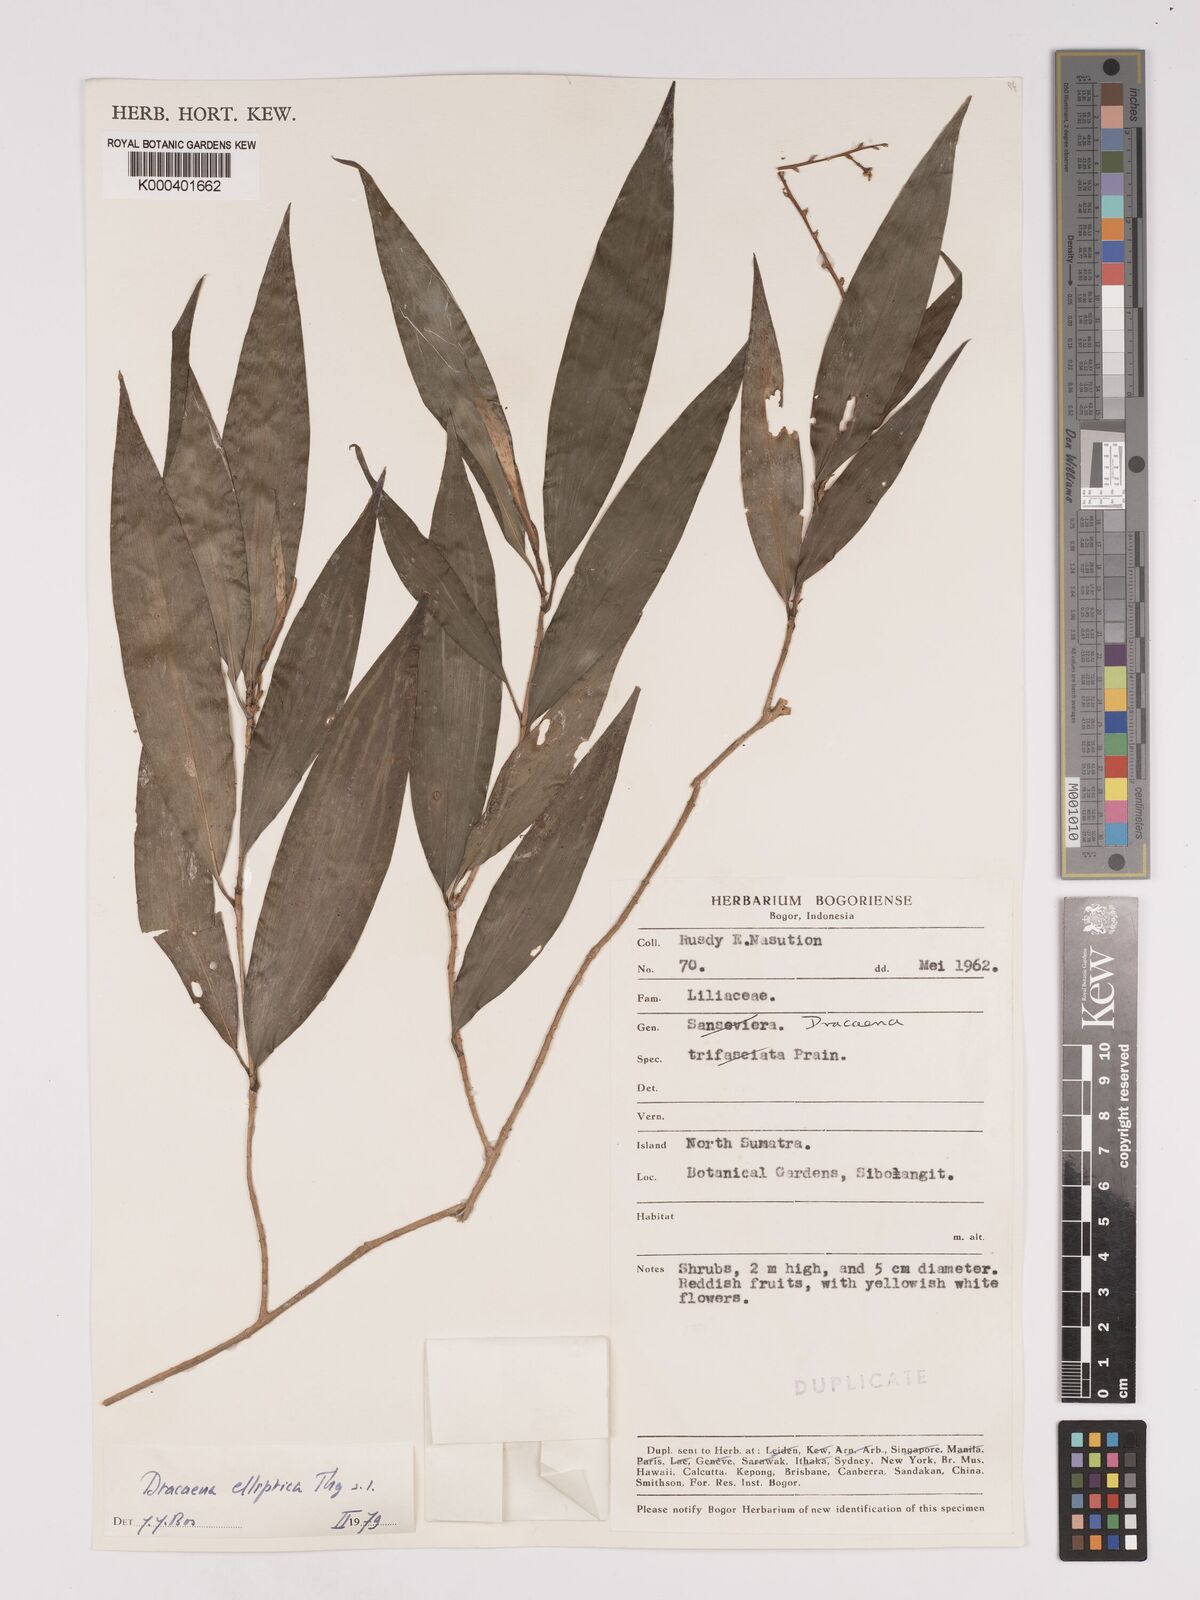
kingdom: Plantae
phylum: Tracheophyta
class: Liliopsida
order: Asparagales
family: Asparagaceae
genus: Dracaena
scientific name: Dracaena elliptica
